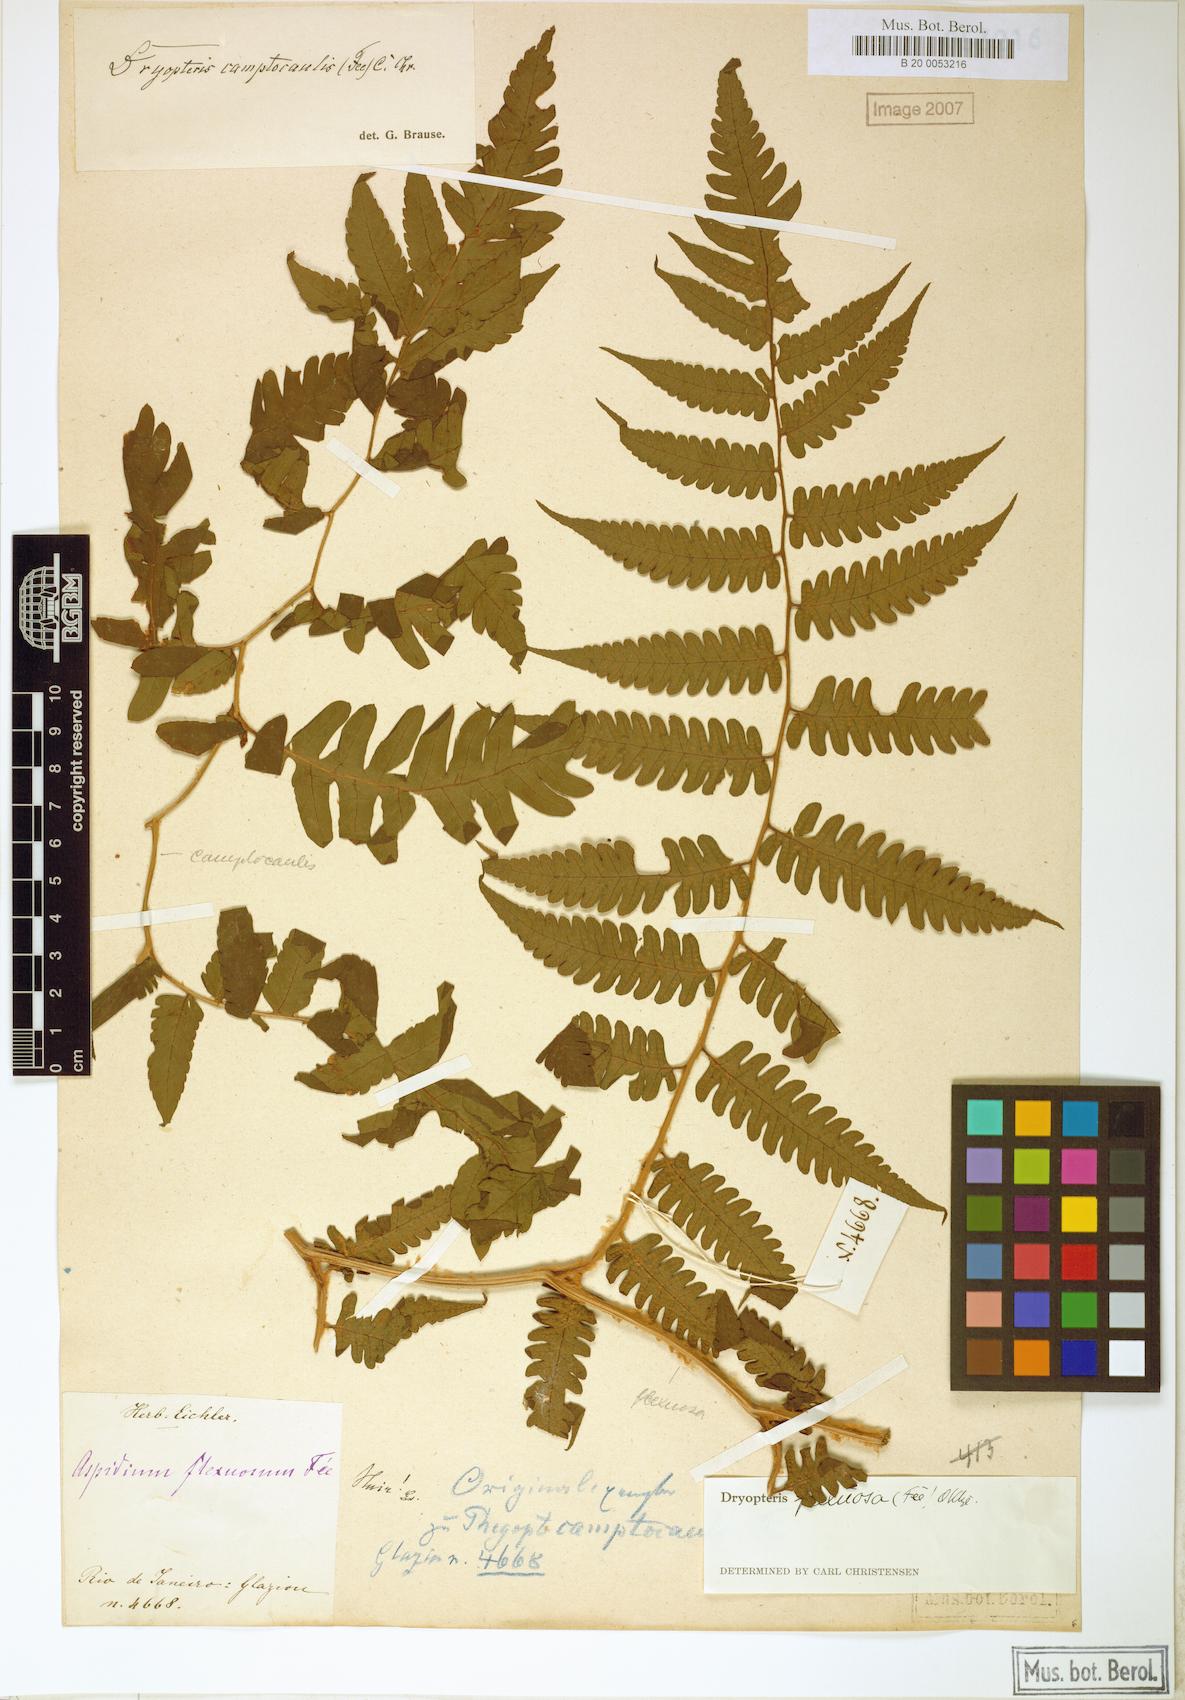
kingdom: Plantae
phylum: Tracheophyta
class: Polypodiopsida
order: Polypodiales
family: Dryopteridaceae
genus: Ctenitis
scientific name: Ctenitis flexuosa
